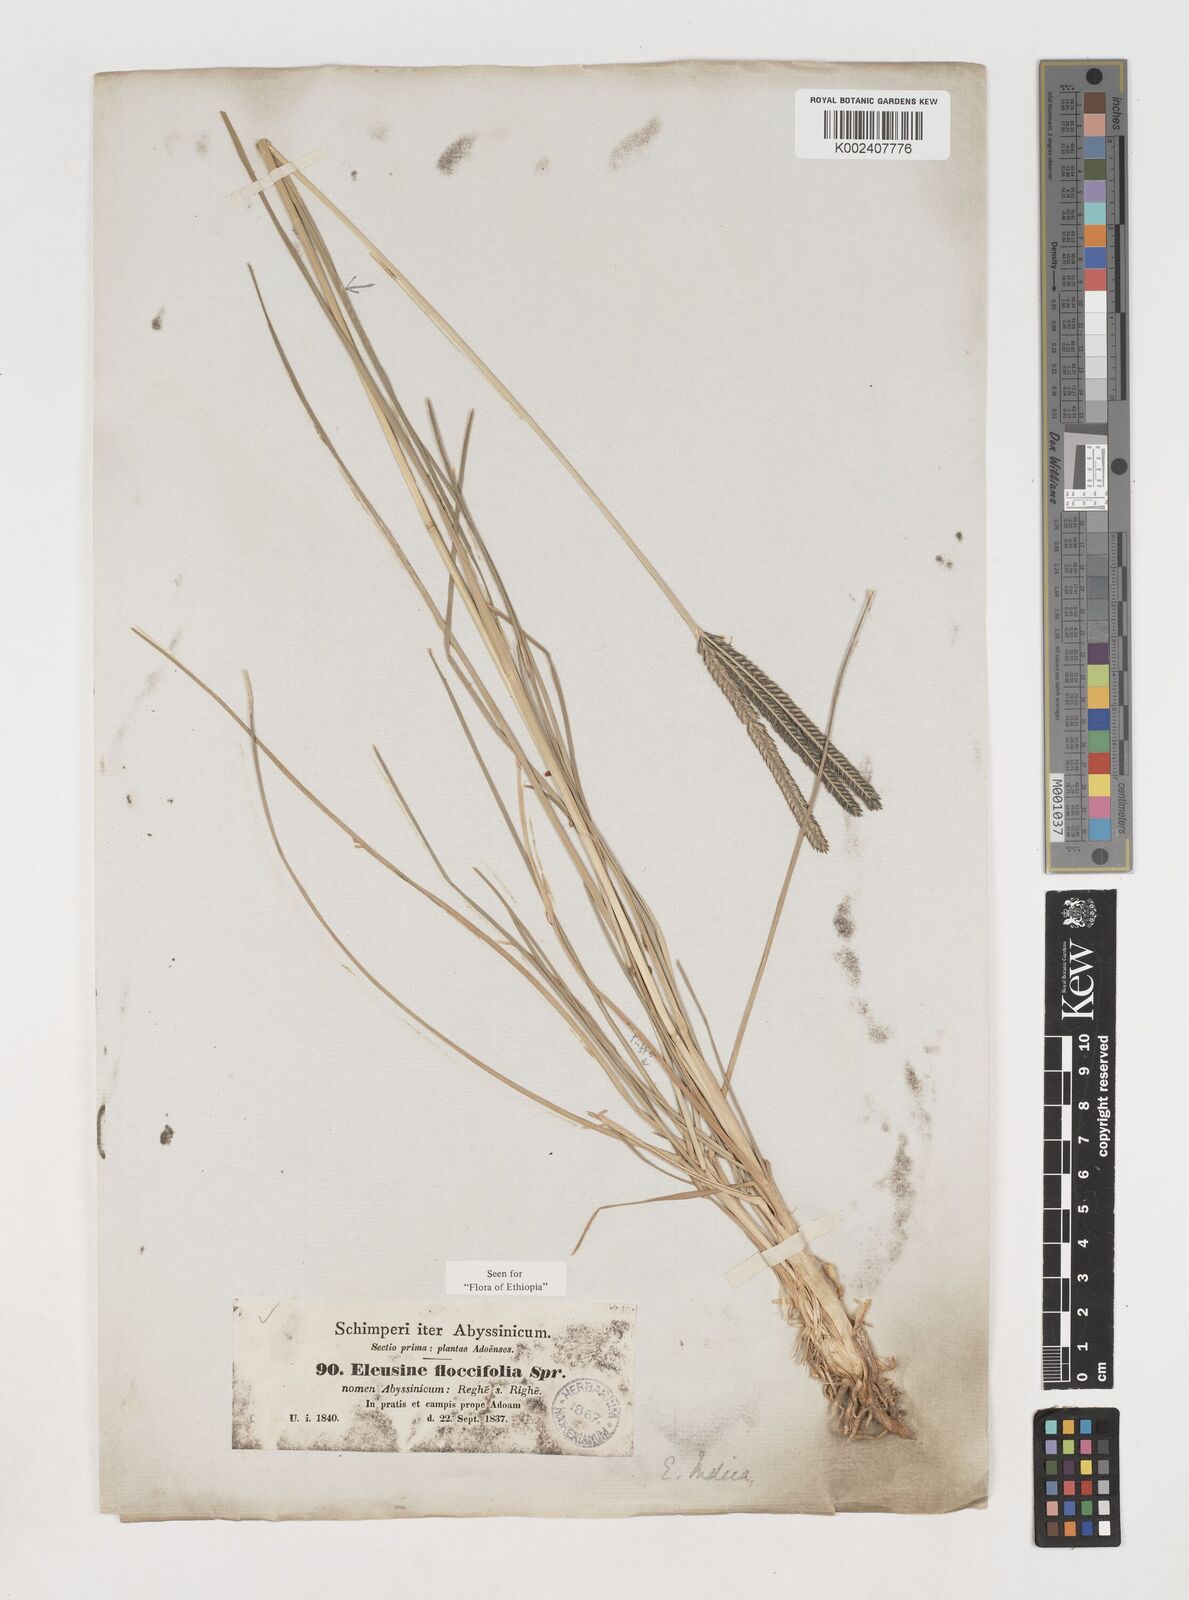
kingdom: Plantae
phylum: Tracheophyta
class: Liliopsida
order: Poales
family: Poaceae
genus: Eleusine
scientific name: Eleusine floccifolia
